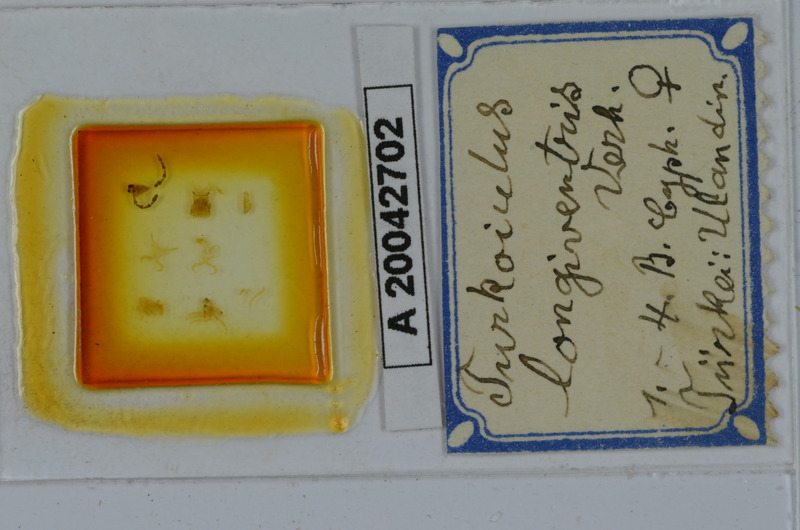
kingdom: Animalia
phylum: Arthropoda
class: Diplopoda
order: Julida
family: Julidae
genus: Calyptophyllum
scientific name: Calyptophyllum longiventre
